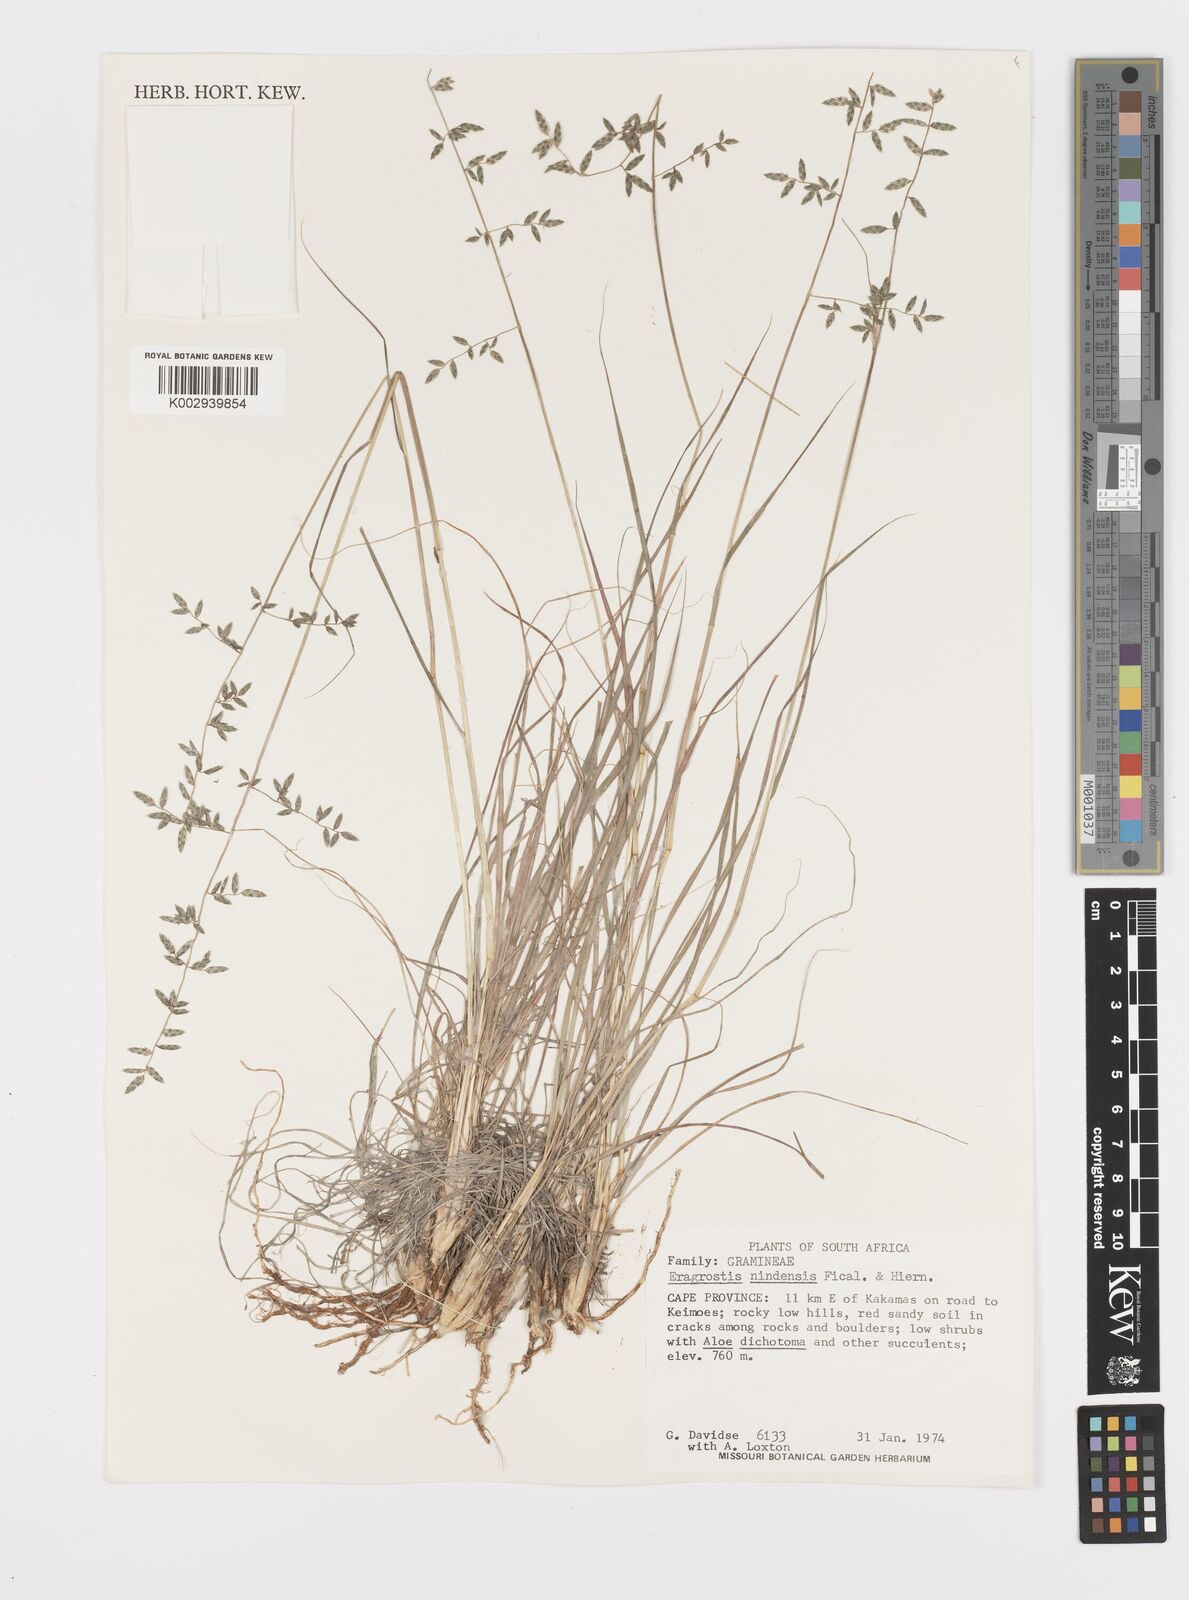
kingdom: Plantae
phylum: Tracheophyta
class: Liliopsida
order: Poales
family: Poaceae
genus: Eragrostis
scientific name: Eragrostis nindensis
